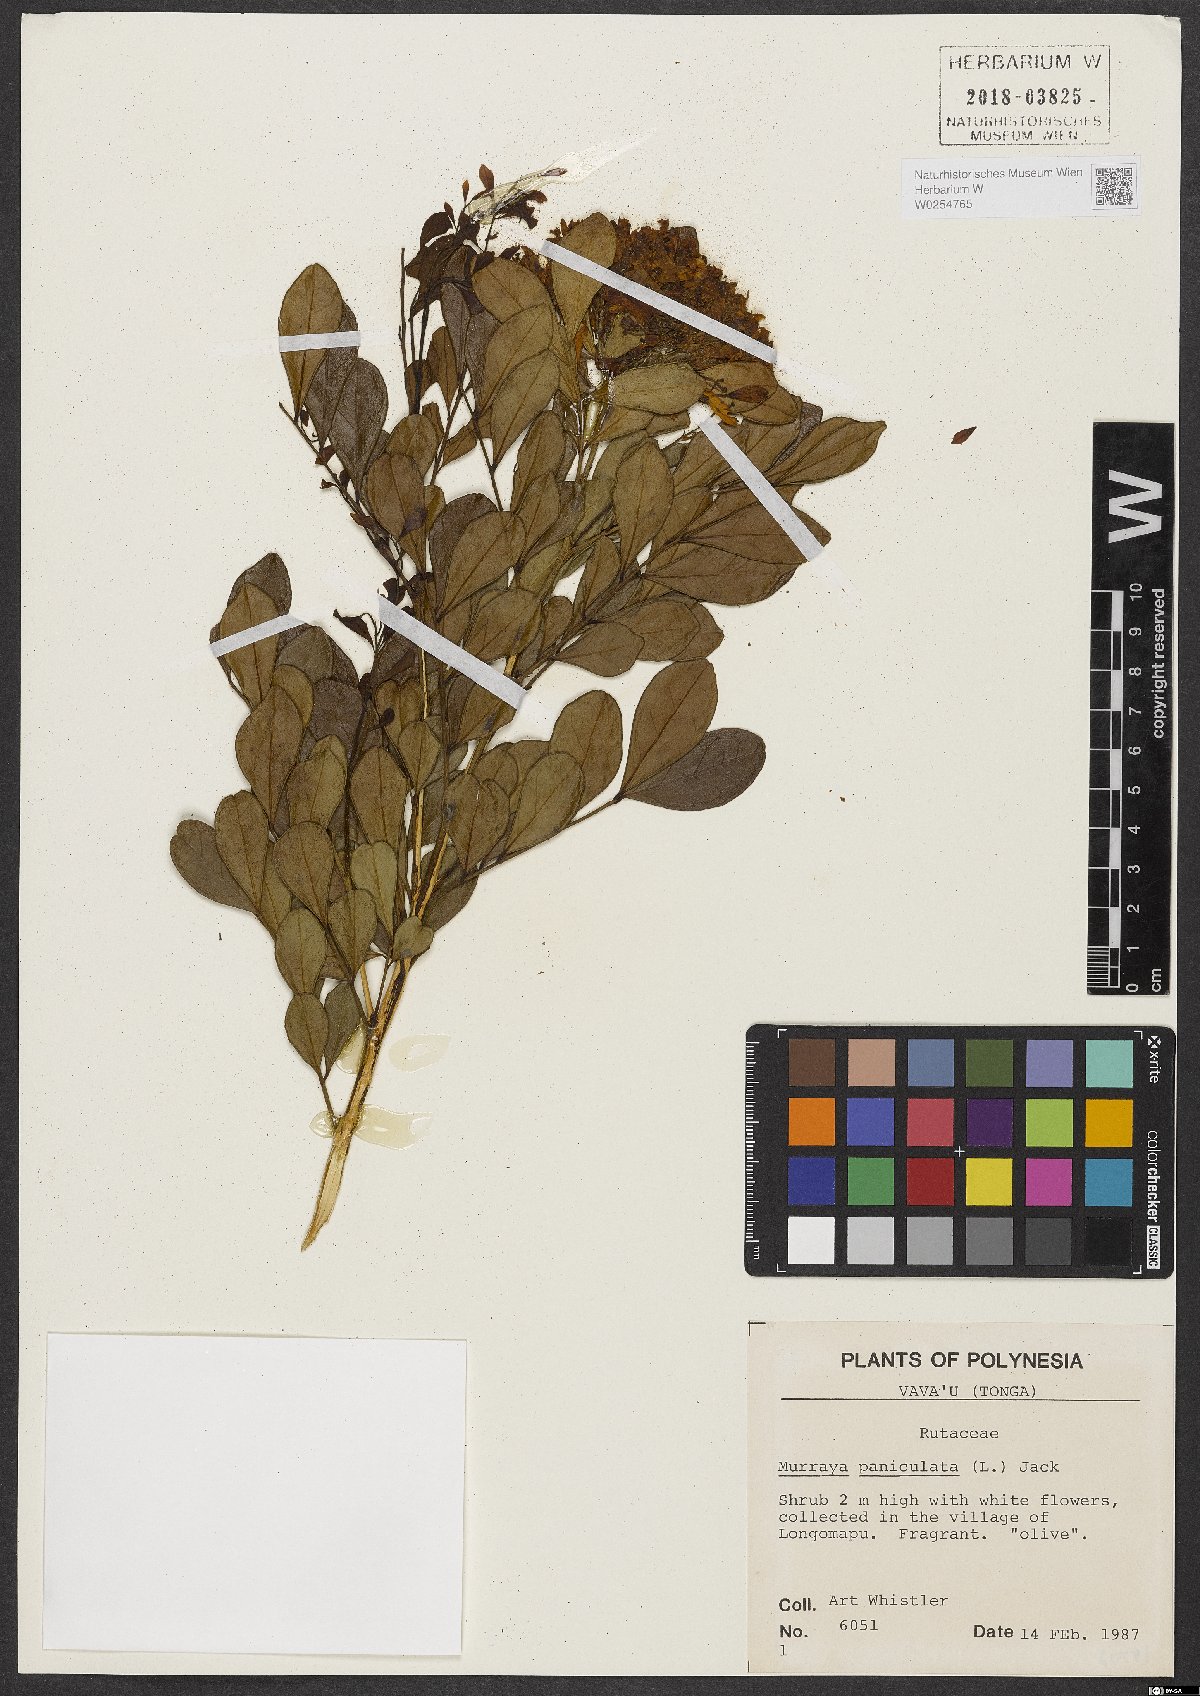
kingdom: Plantae
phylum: Tracheophyta
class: Magnoliopsida
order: Sapindales
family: Rutaceae
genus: Murraya
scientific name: Murraya paniculata
